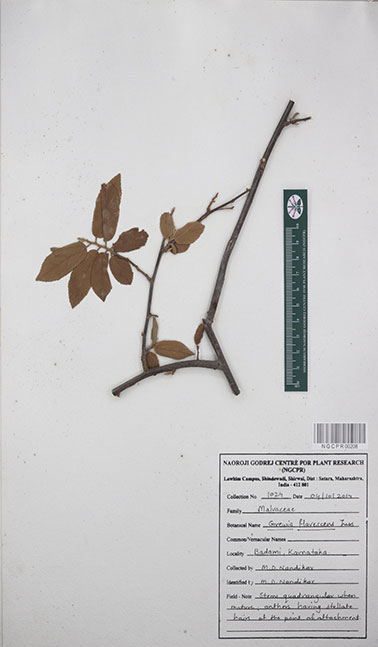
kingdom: Plantae
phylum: Tracheophyta
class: Magnoliopsida
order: Malvales
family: Malvaceae
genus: Grewia
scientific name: Grewia flavescens
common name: Sandpaper raisin
